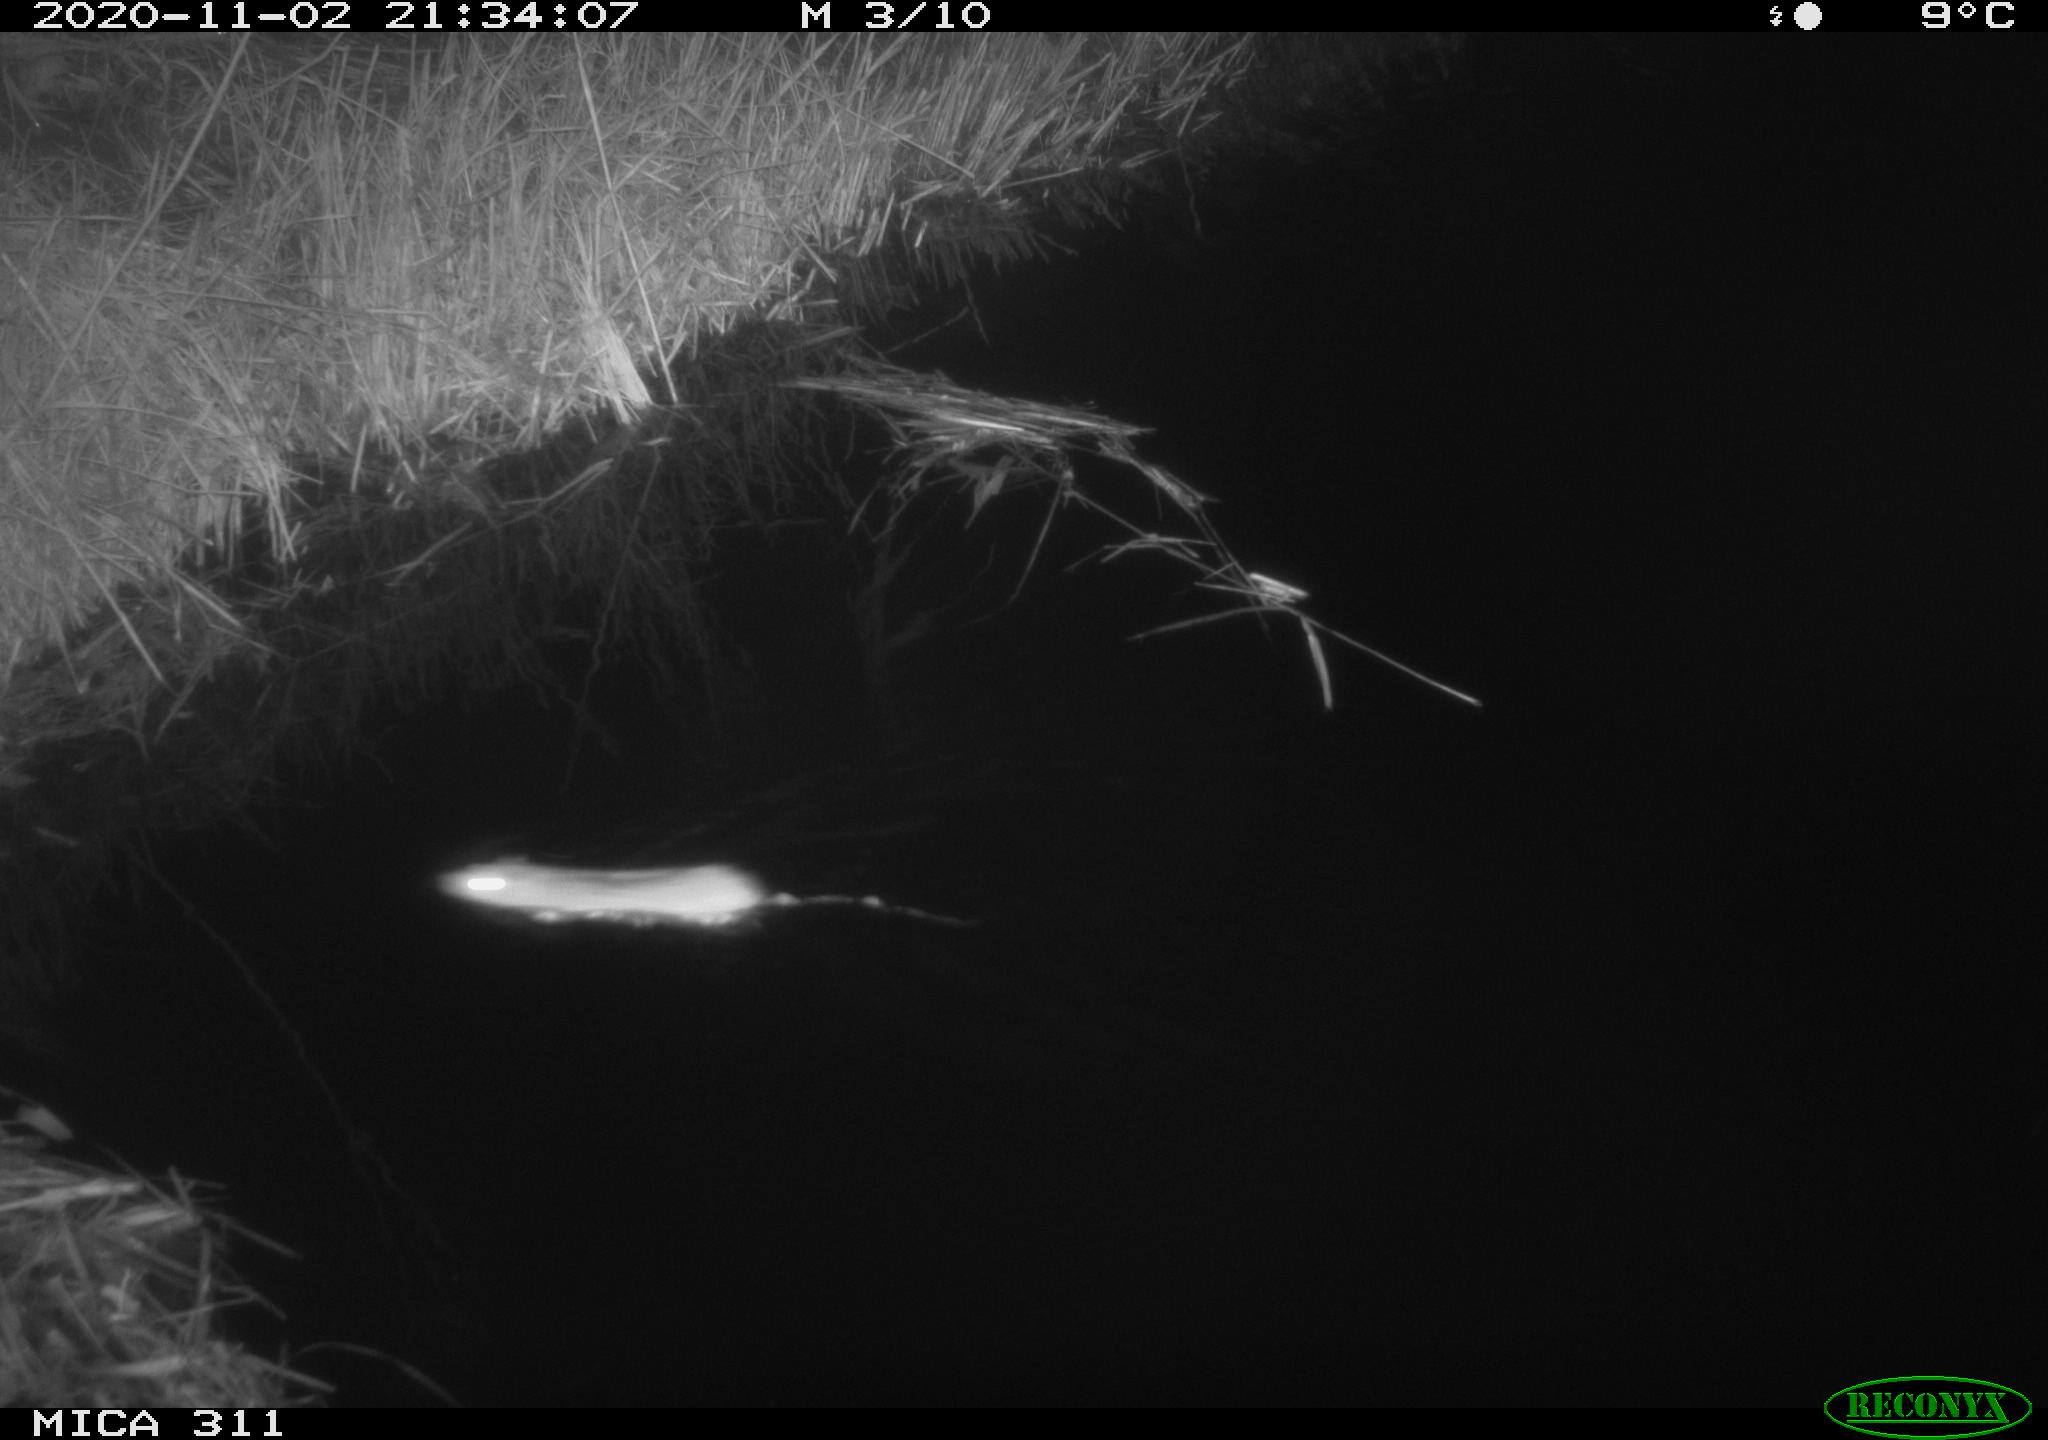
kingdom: Animalia
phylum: Chordata
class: Mammalia
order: Rodentia
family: Cricetidae
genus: Ondatra
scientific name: Ondatra zibethicus
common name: Muskrat
